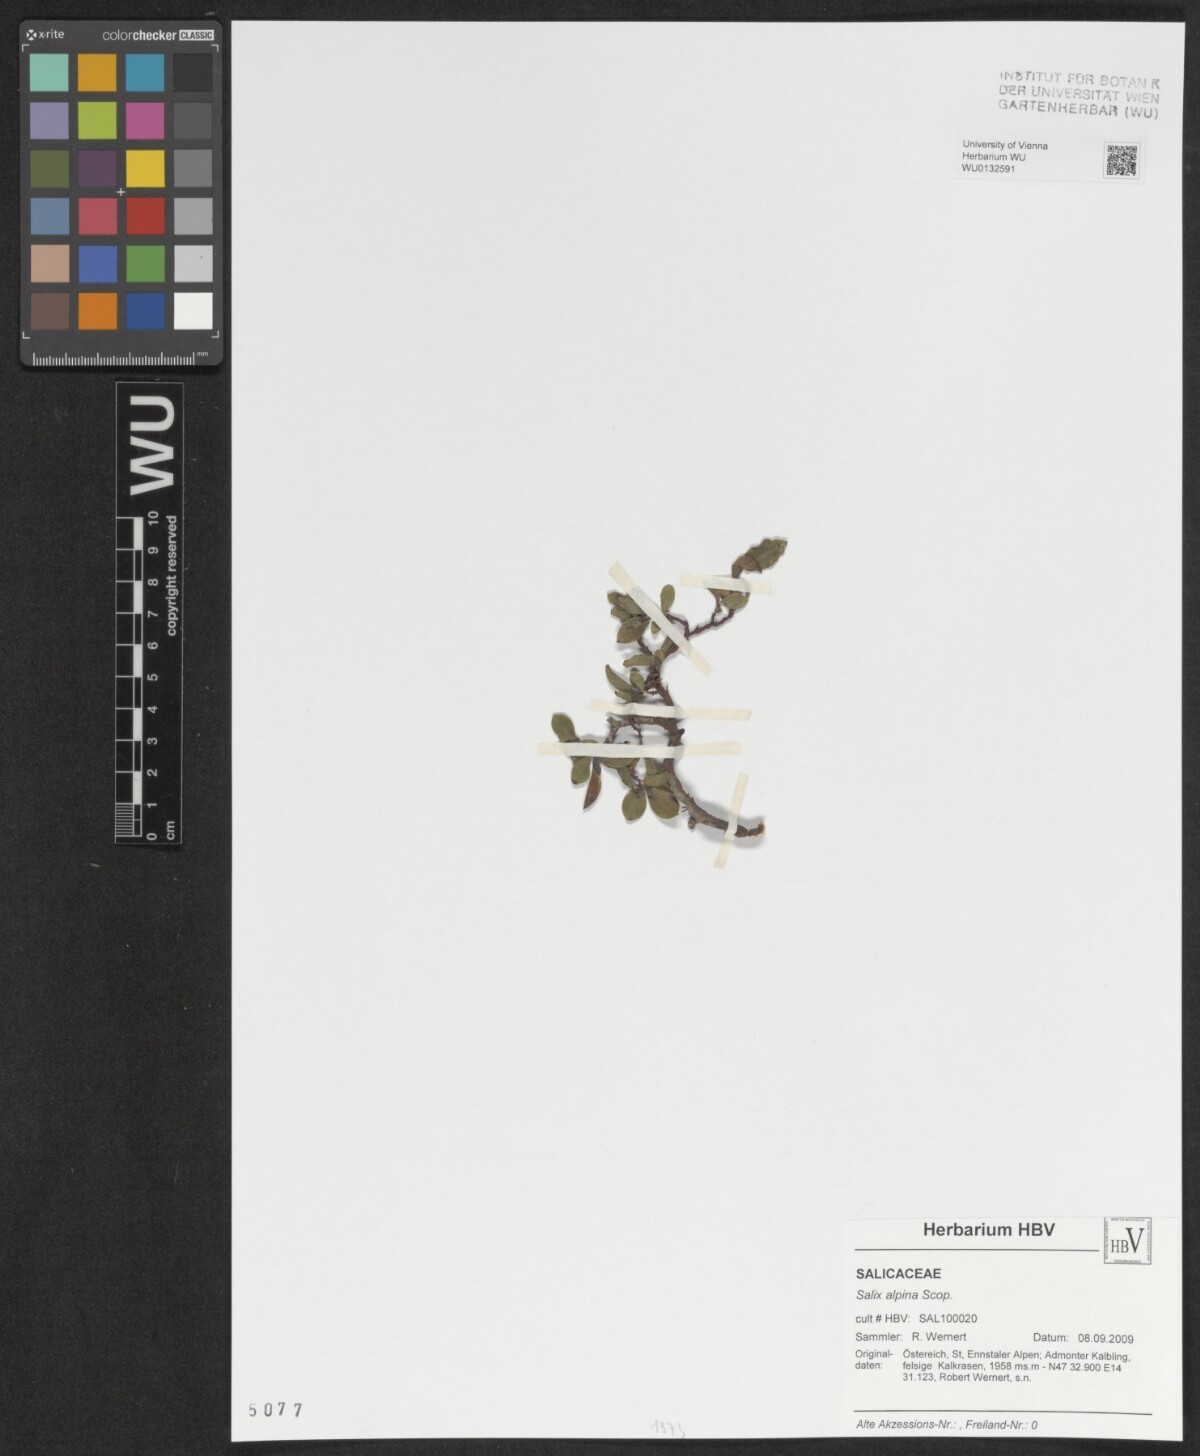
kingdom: Plantae
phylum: Tracheophyta
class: Magnoliopsida
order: Malpighiales
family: Salicaceae
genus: Salix
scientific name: Salix alpina
